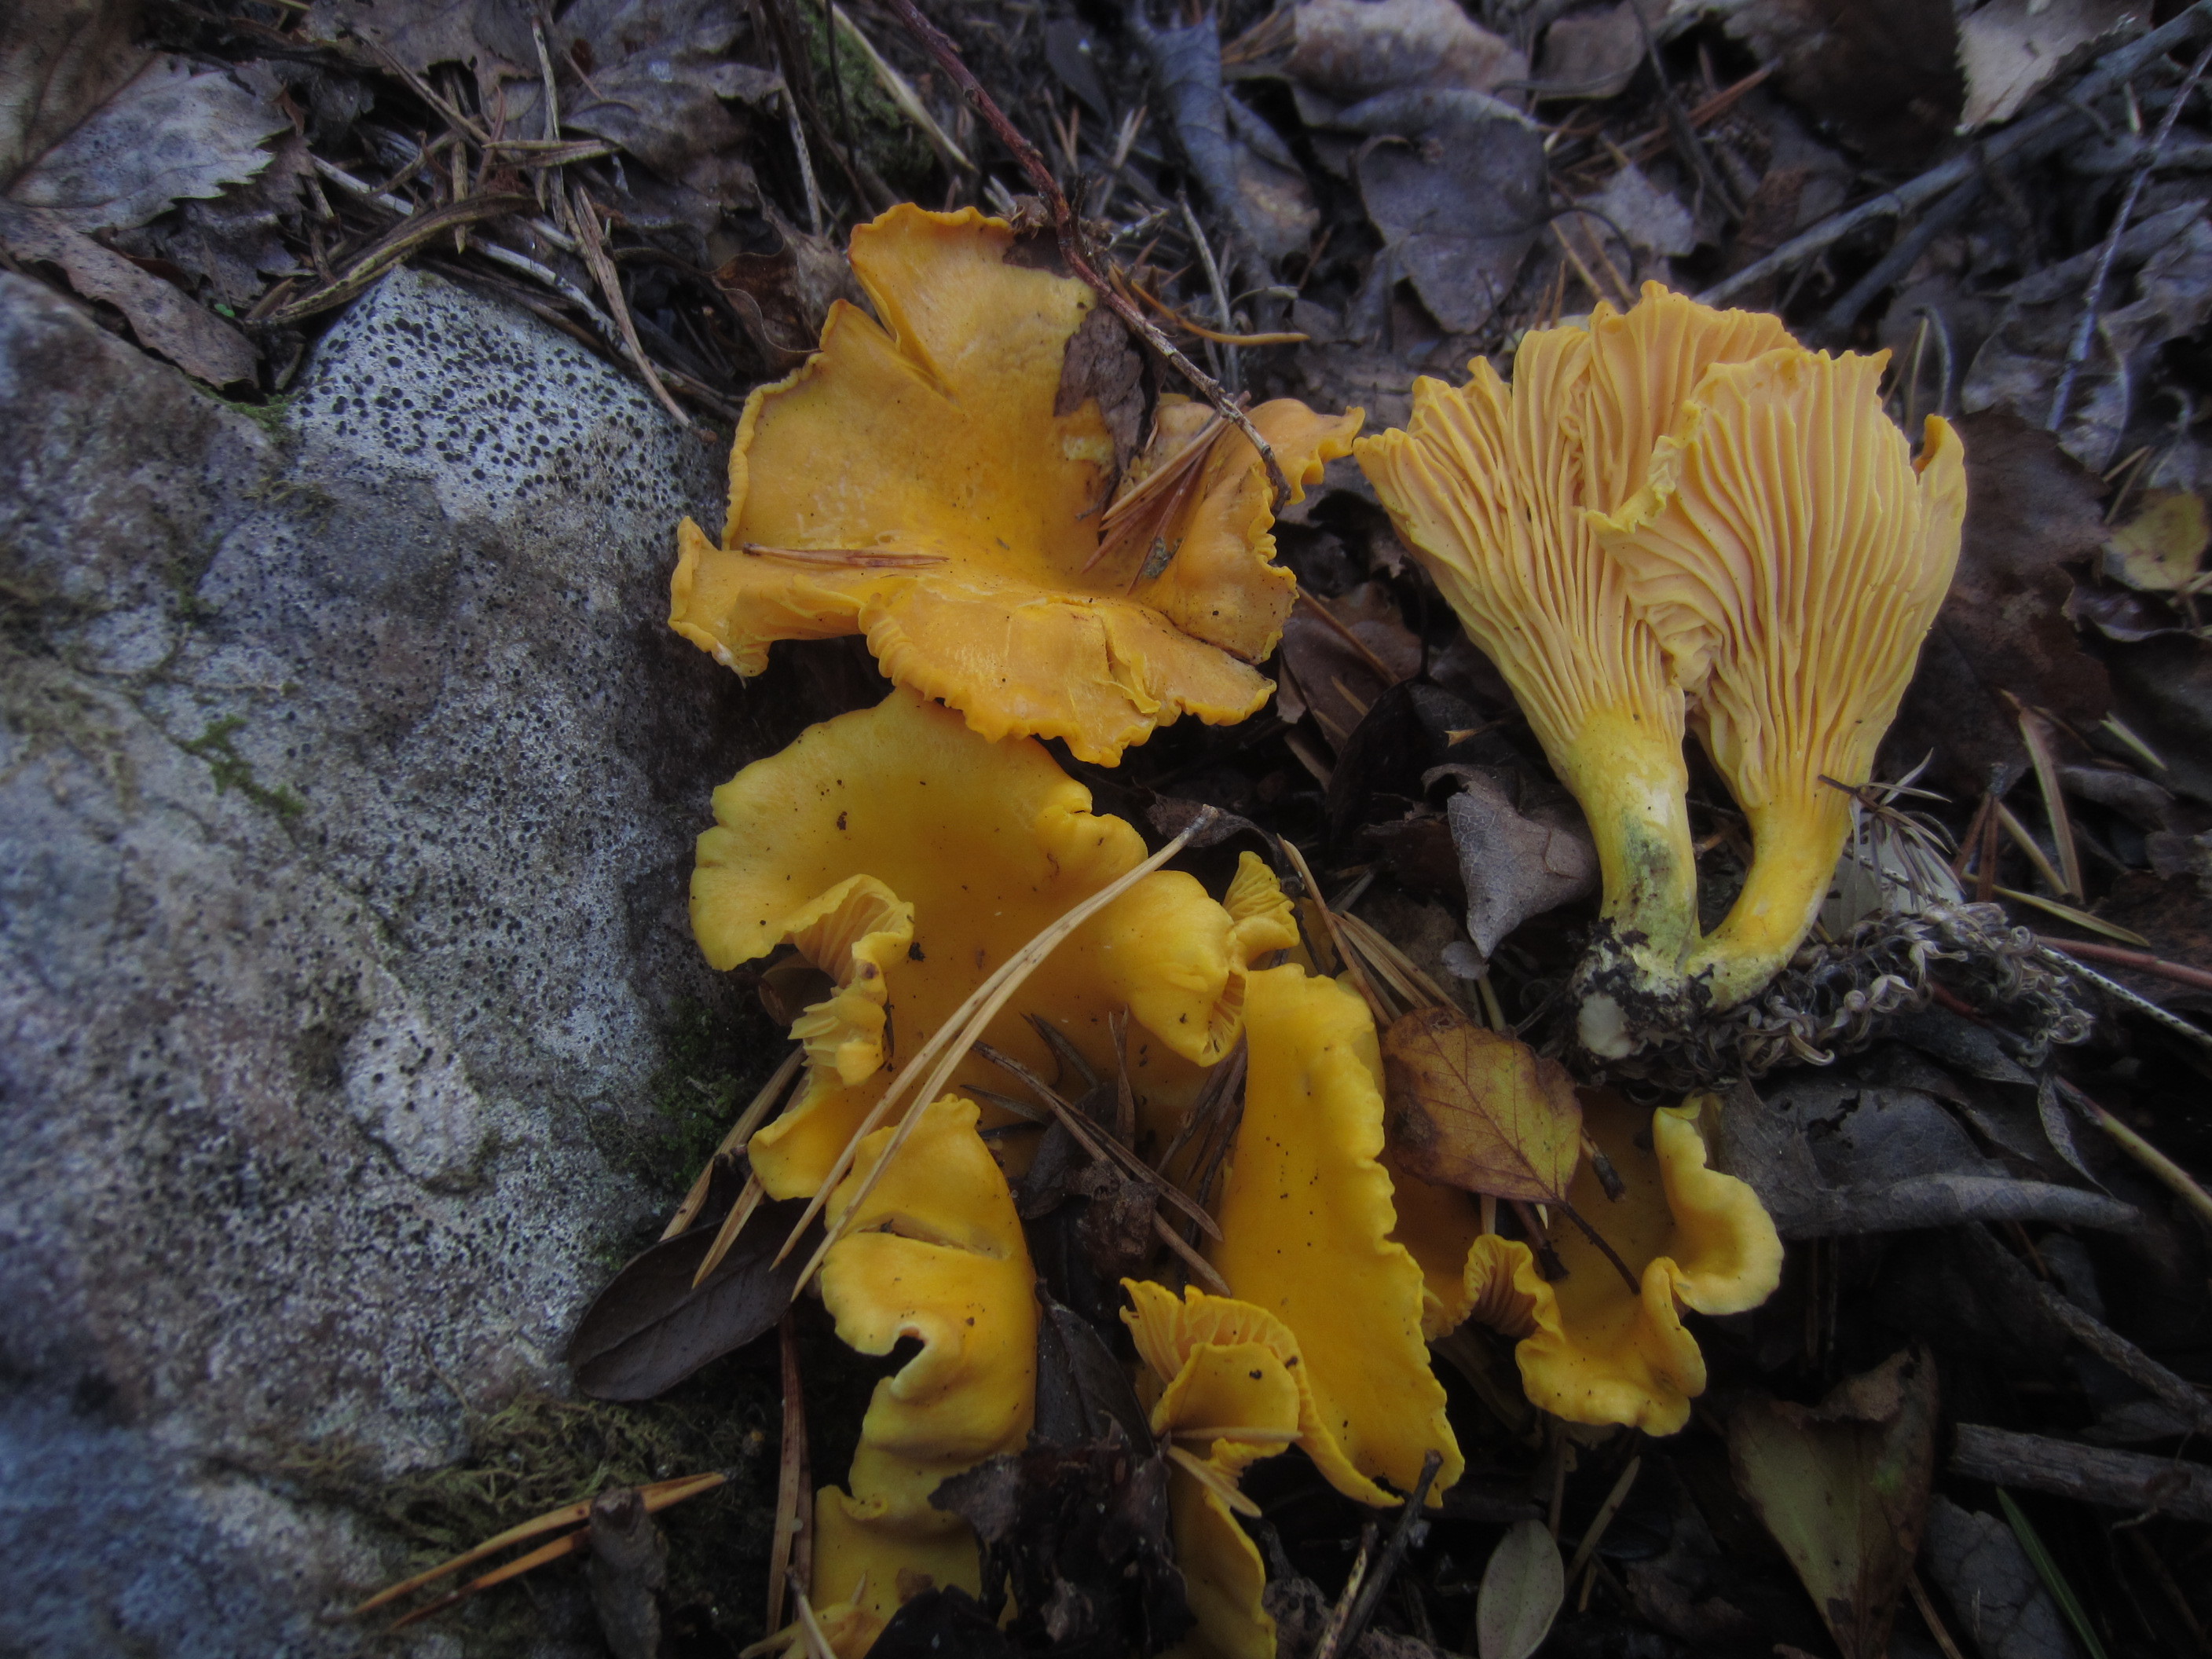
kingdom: Fungi
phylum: Basidiomycota
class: Agaricomycetes
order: Cantharellales
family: Hydnaceae
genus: Cantharellus
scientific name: Cantharellus cibarius
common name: Chanterelle
